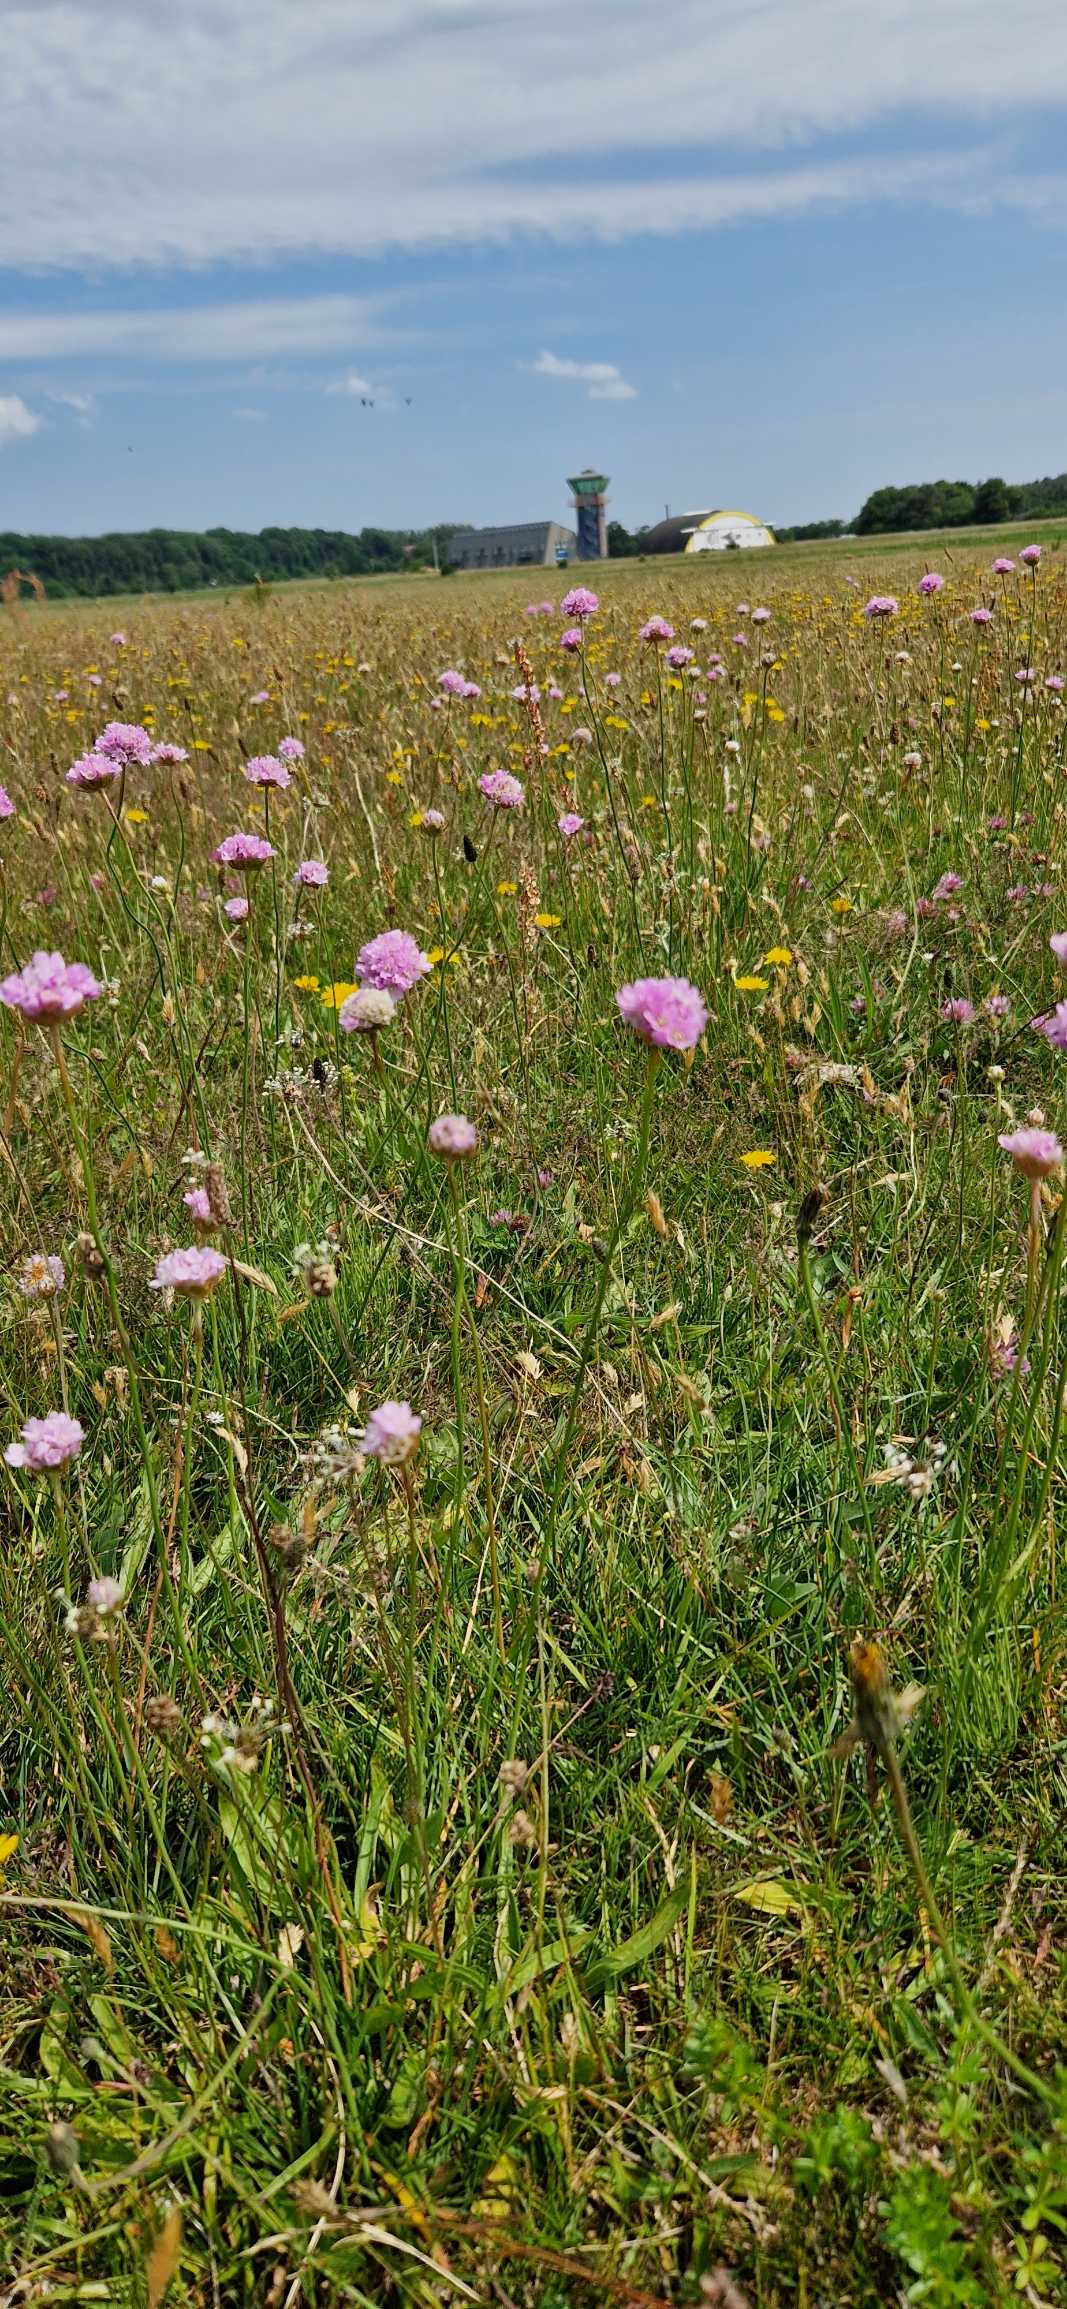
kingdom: Plantae
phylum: Tracheophyta
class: Magnoliopsida
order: Caryophyllales
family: Plumbaginaceae
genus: Armeria
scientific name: Armeria maritima
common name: Engelskgræs
